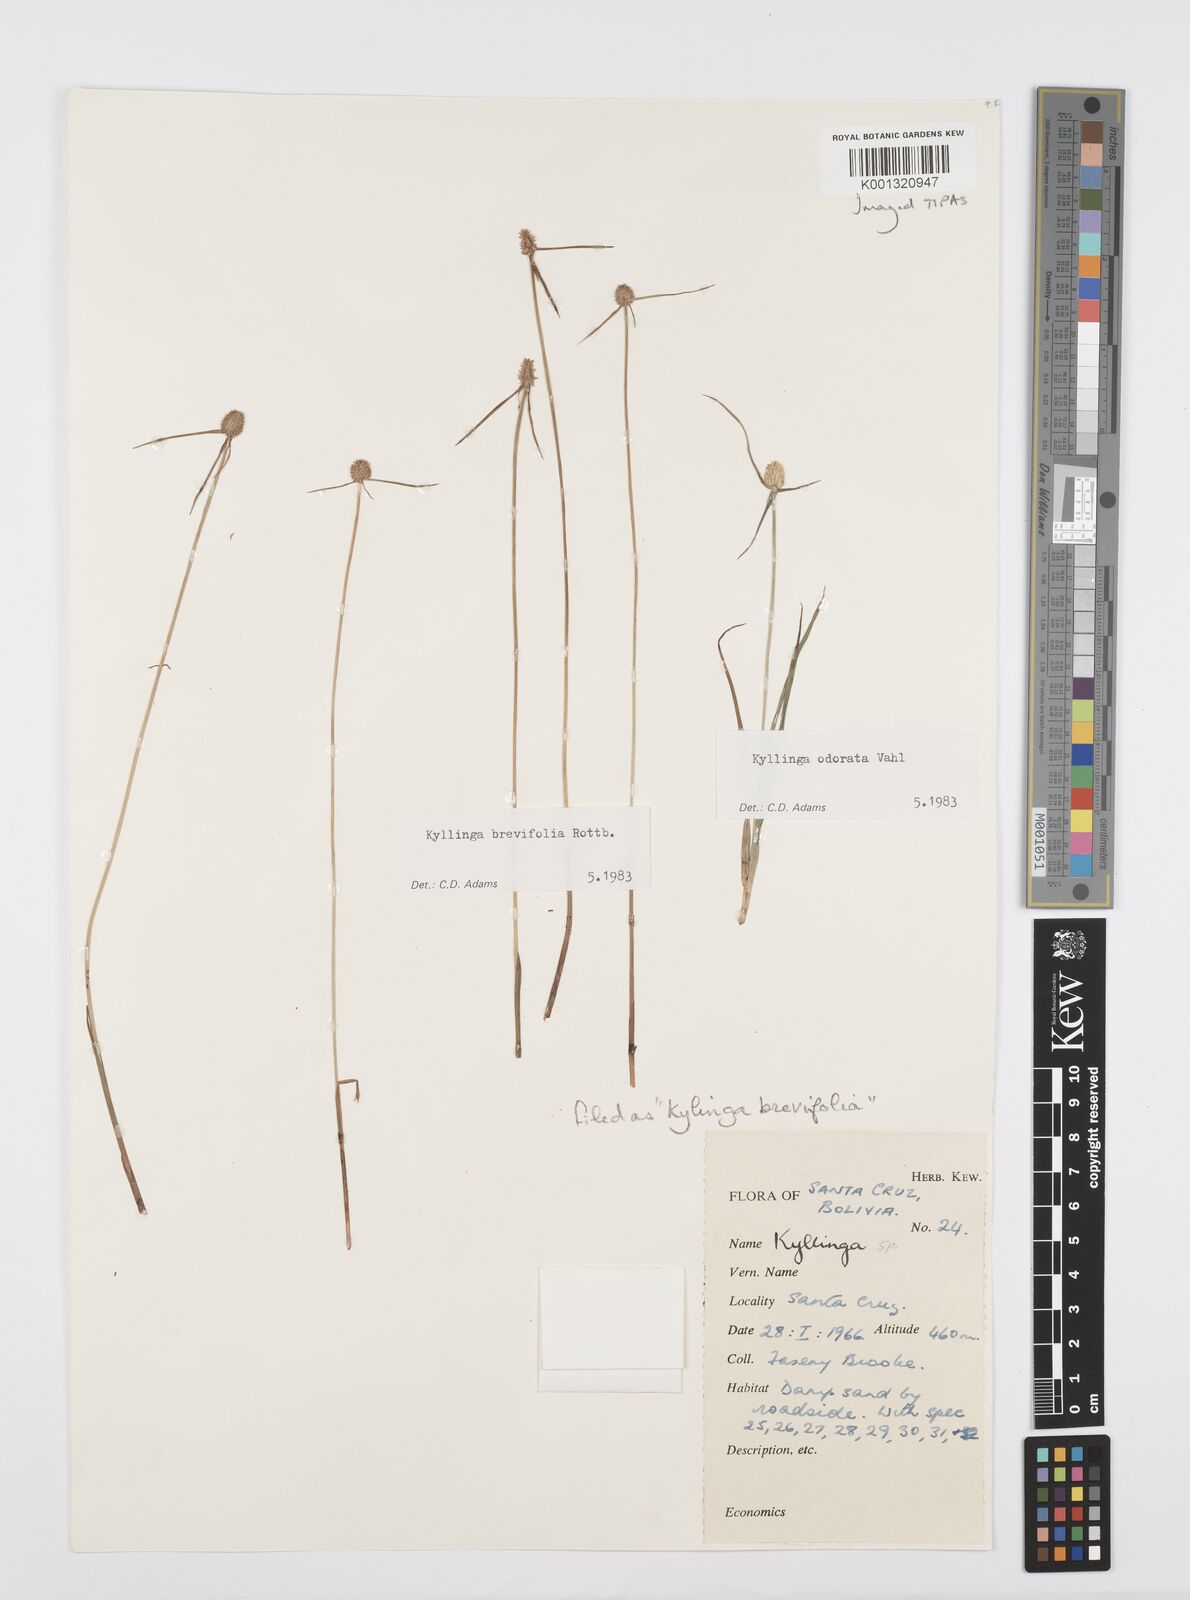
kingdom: Plantae
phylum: Tracheophyta
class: Liliopsida
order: Poales
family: Cyperaceae
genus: Cyperus
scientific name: Cyperus brevifolius
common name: Globe kyllinga
